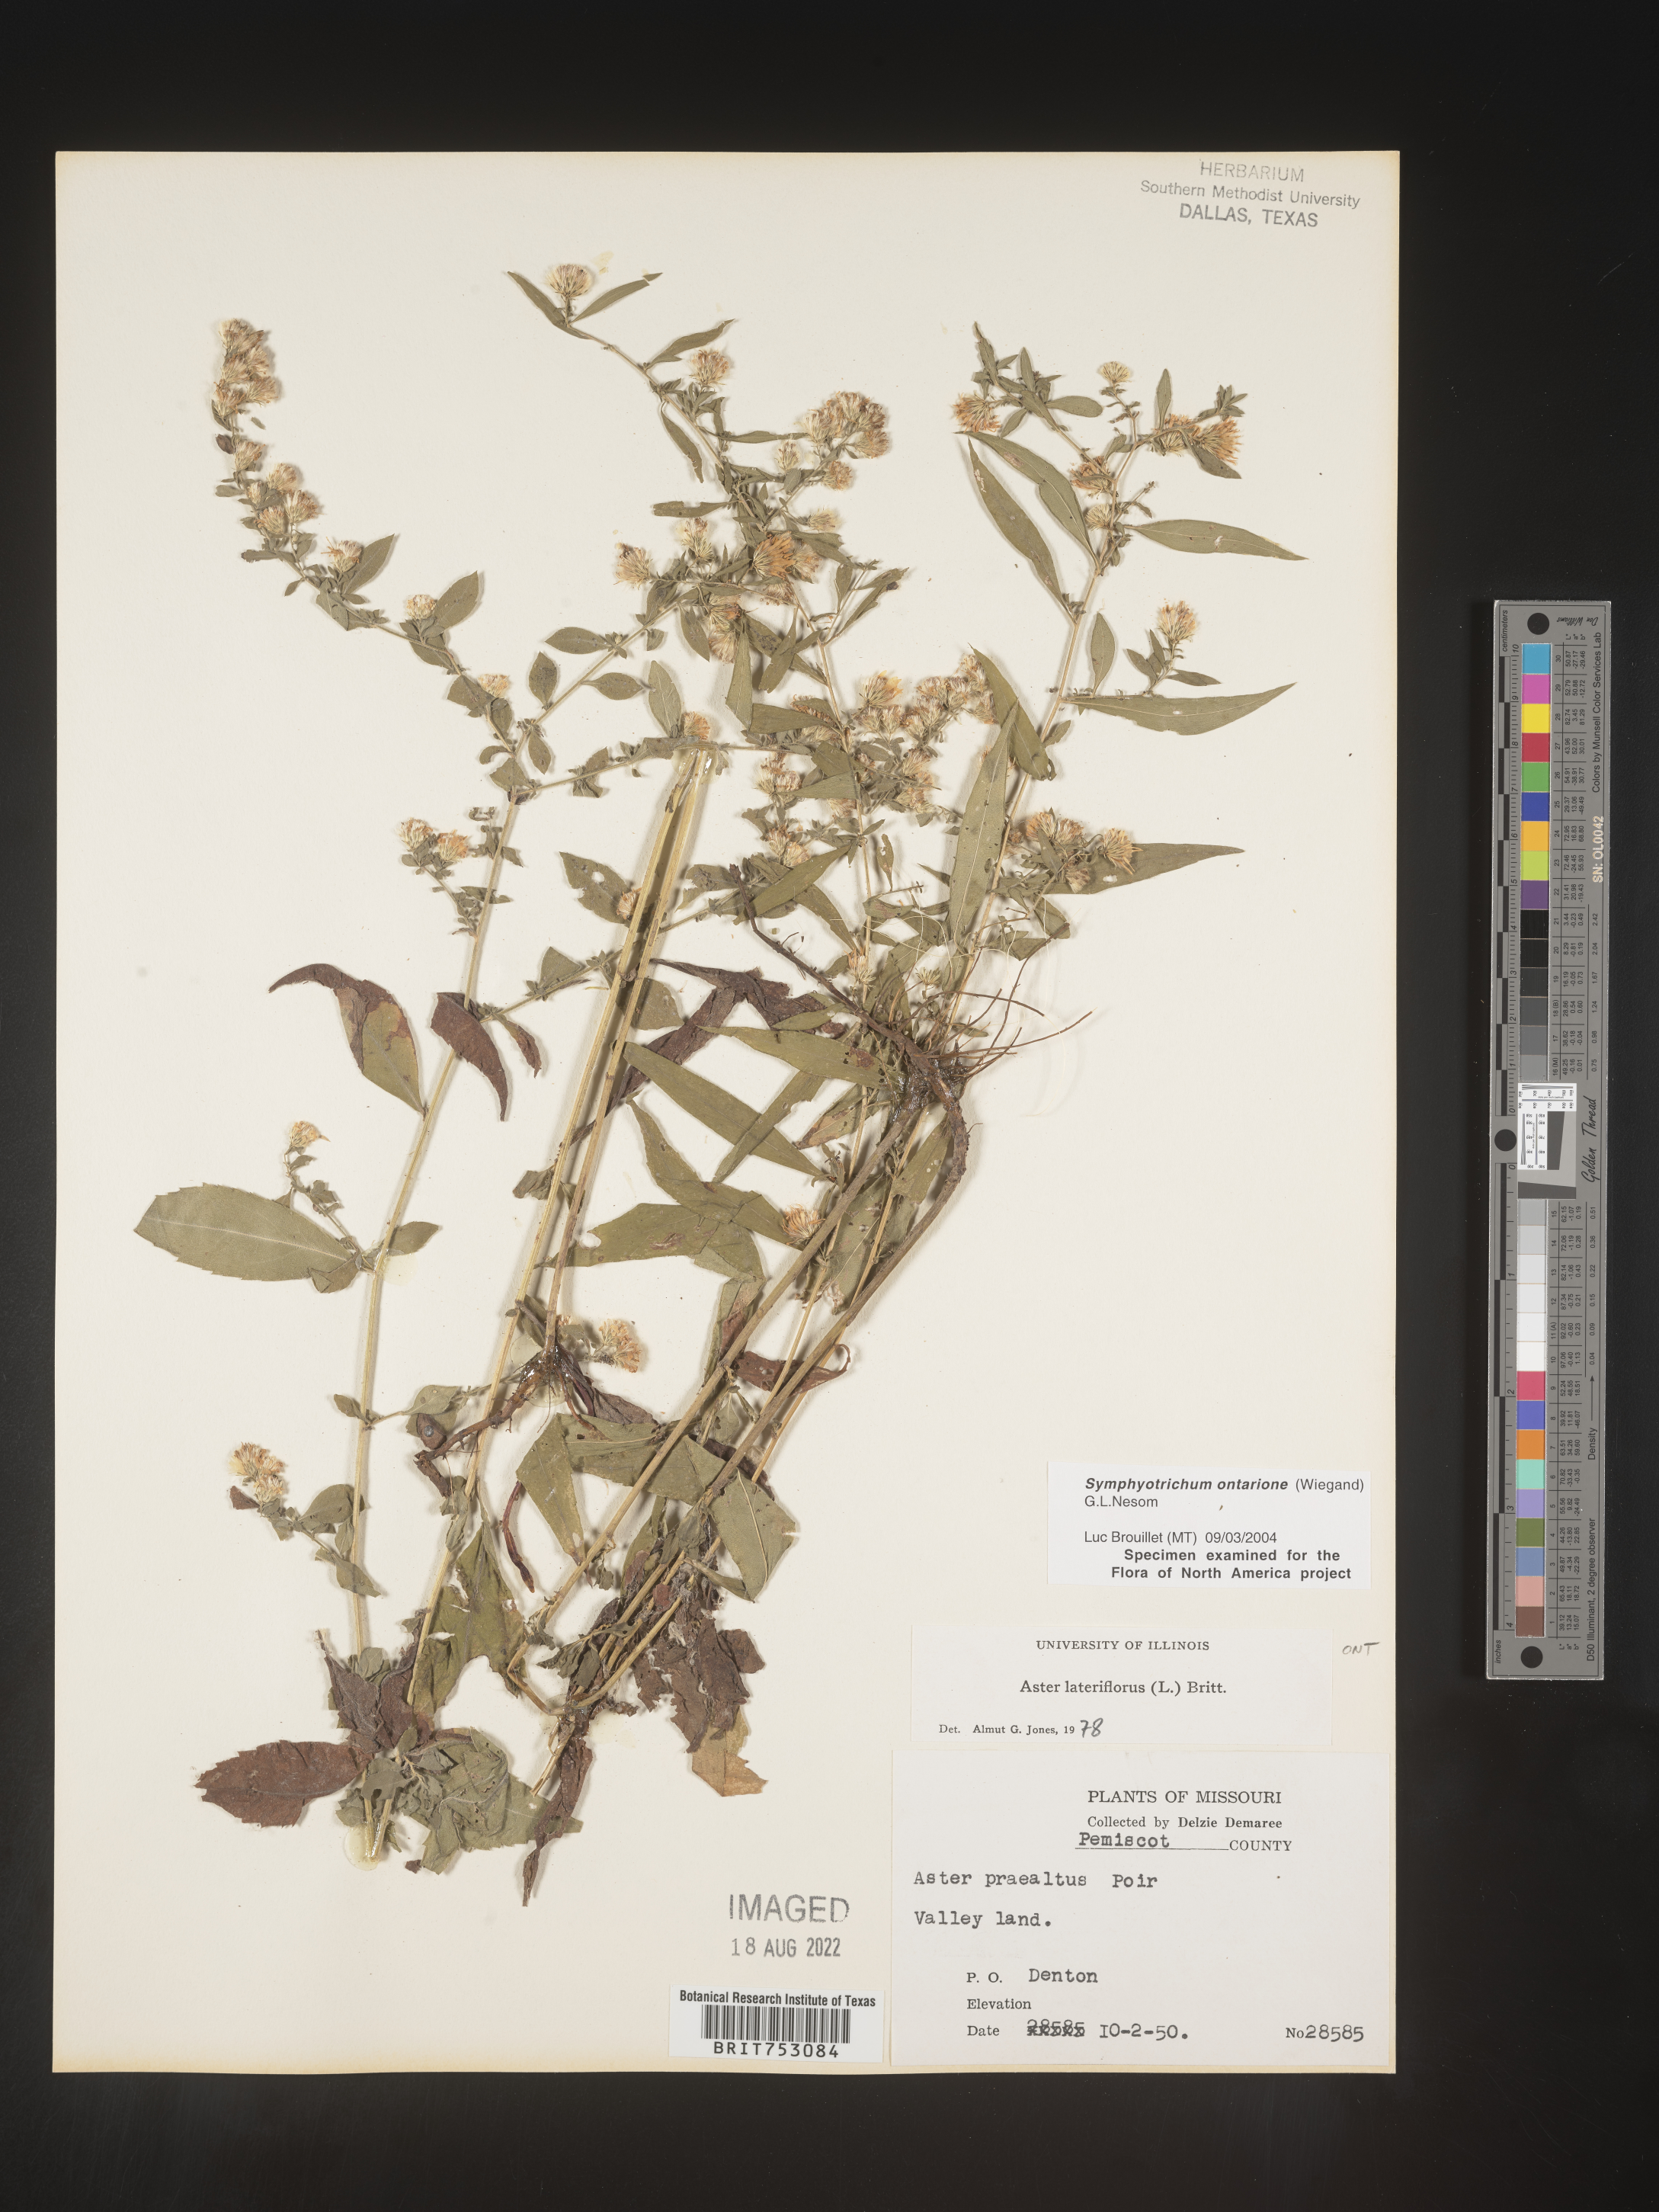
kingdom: Plantae
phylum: Tracheophyta
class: Magnoliopsida
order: Asterales
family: Asteraceae
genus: Symphyotrichum
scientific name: Symphyotrichum ontarionis
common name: Bottomland aster
